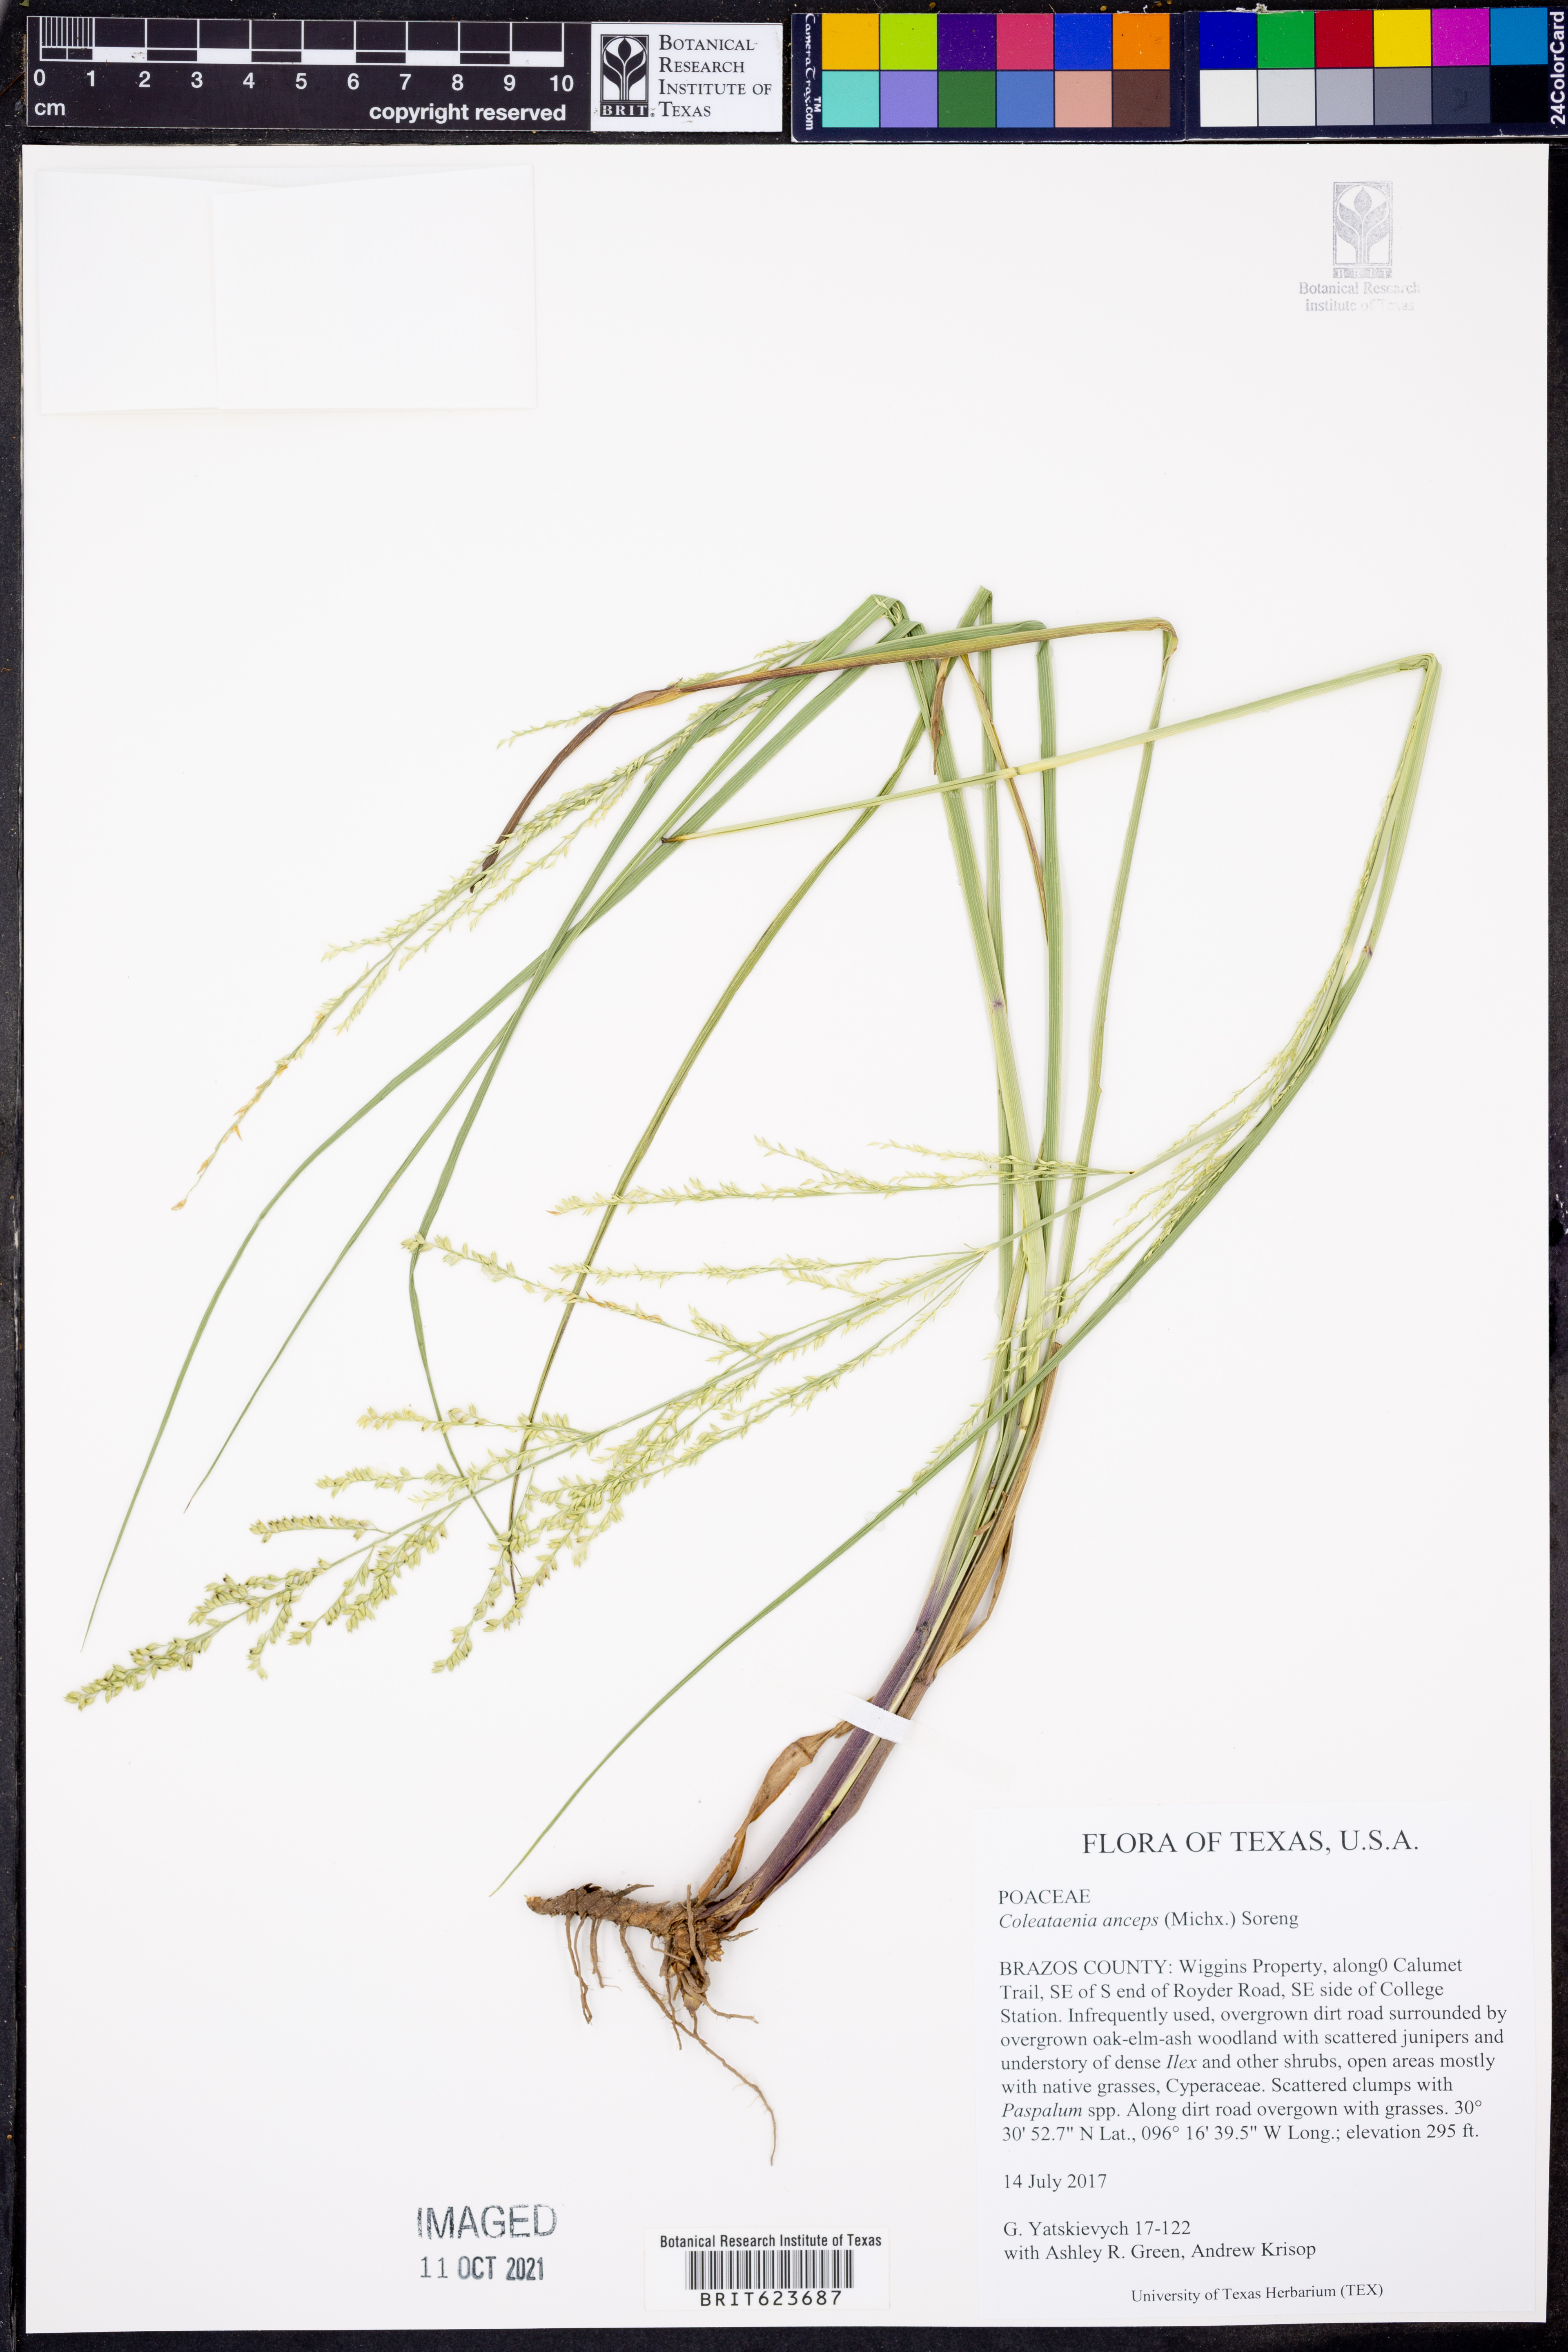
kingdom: Plantae
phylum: Tracheophyta
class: Liliopsida
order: Poales
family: Poaceae
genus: Coleataenia
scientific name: Coleataenia anceps
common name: Beaked panic grass
